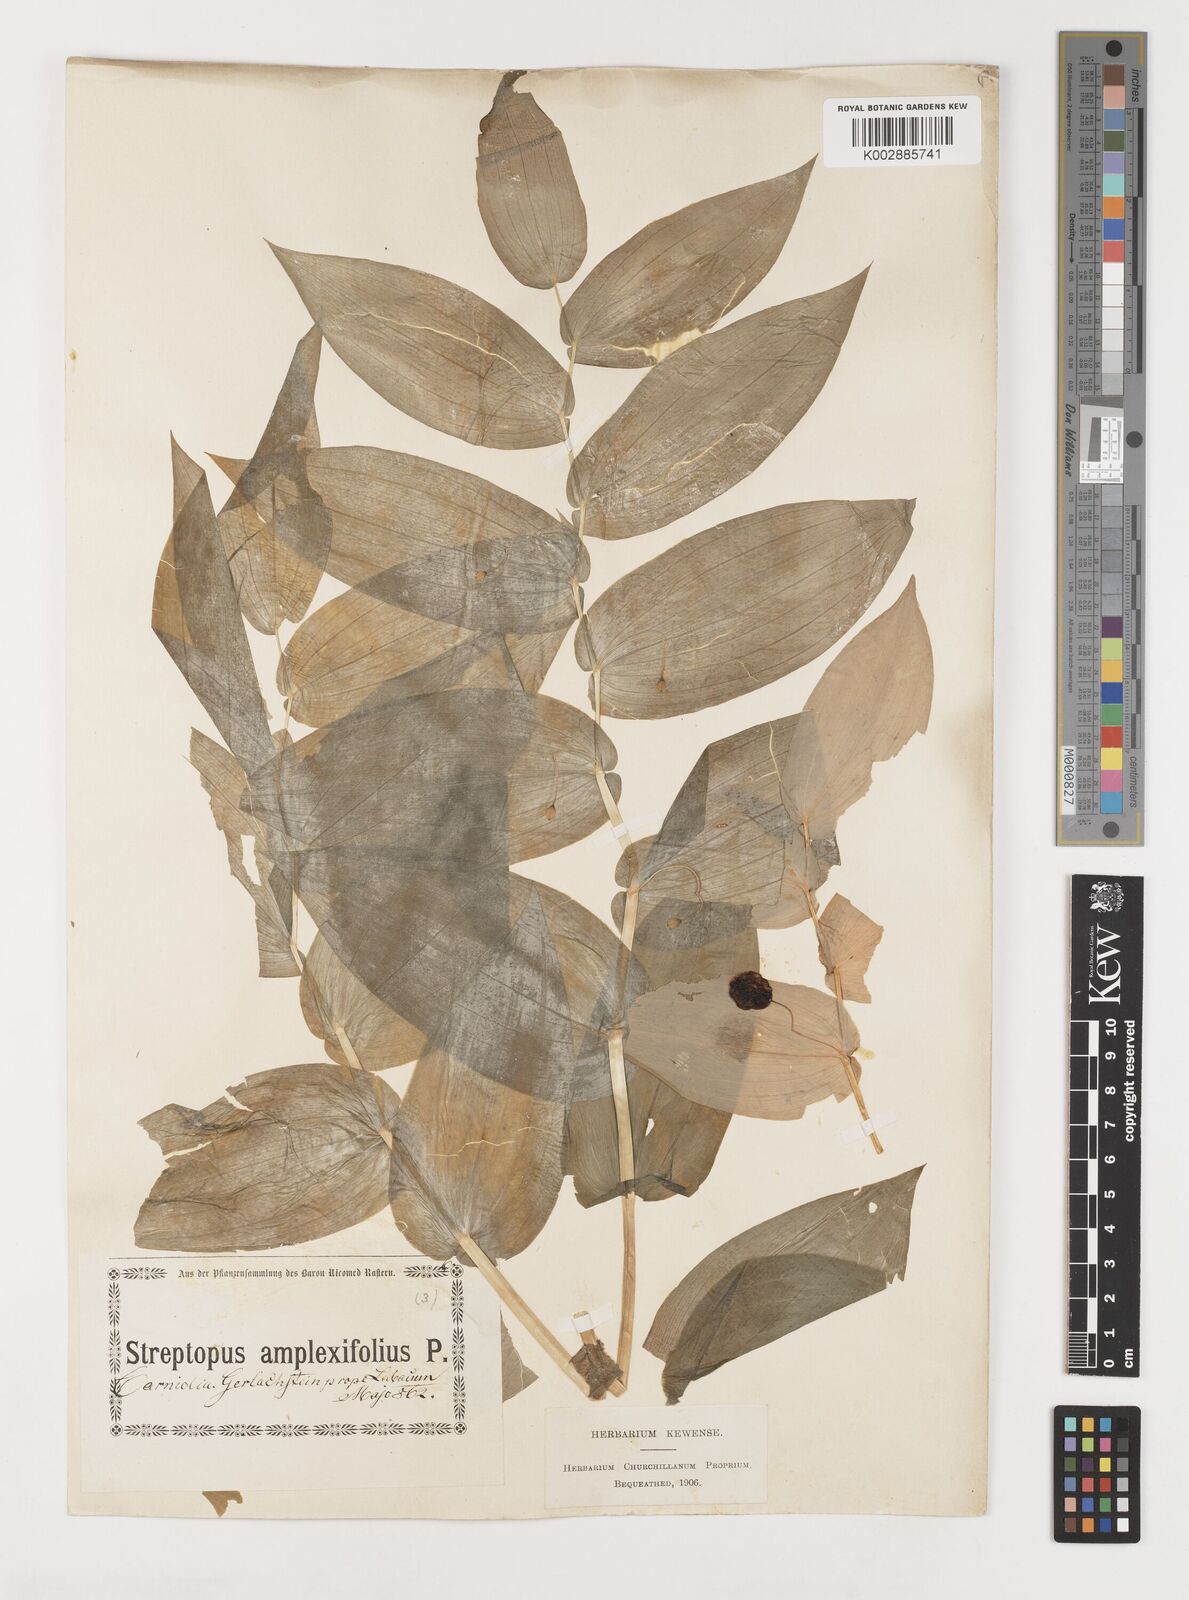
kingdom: Plantae
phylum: Tracheophyta
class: Liliopsida
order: Liliales
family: Liliaceae
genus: Streptopus
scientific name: Streptopus amplexifolius
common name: Clasp twisted stalk
